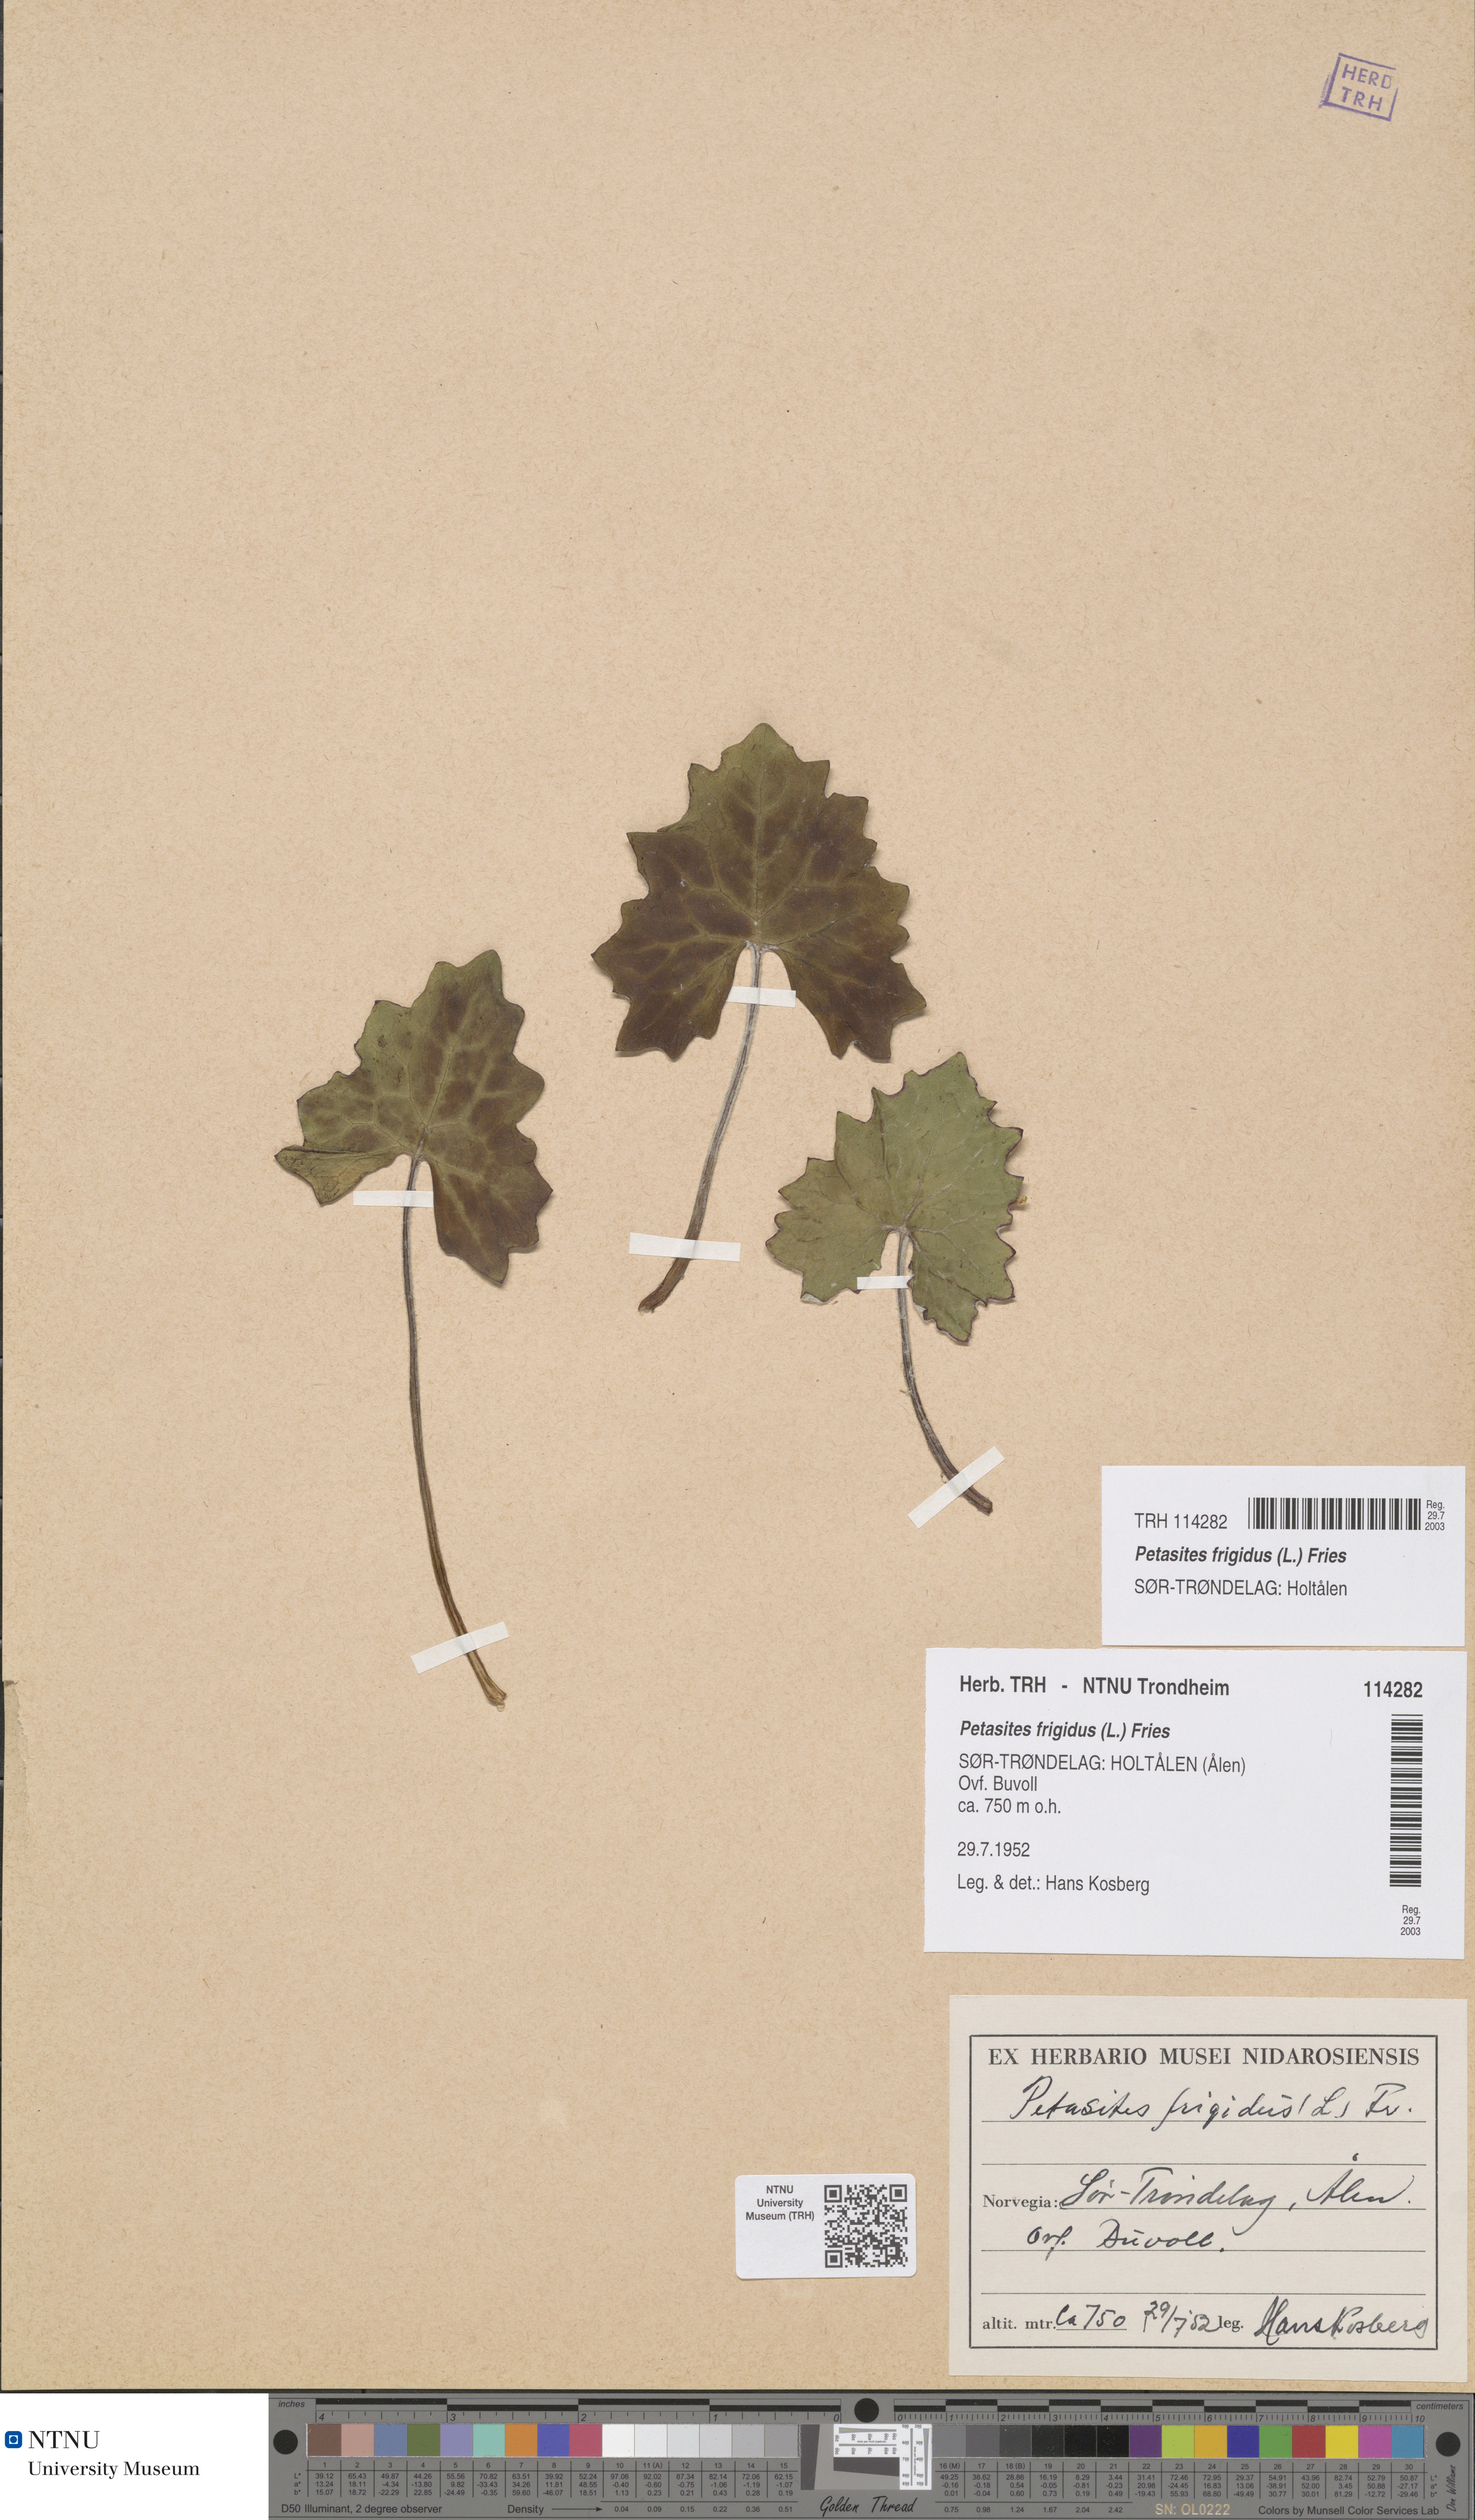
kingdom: Plantae
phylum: Tracheophyta
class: Magnoliopsida
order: Asterales
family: Asteraceae
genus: Petasites
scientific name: Petasites frigidus
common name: Arctic butterbur
